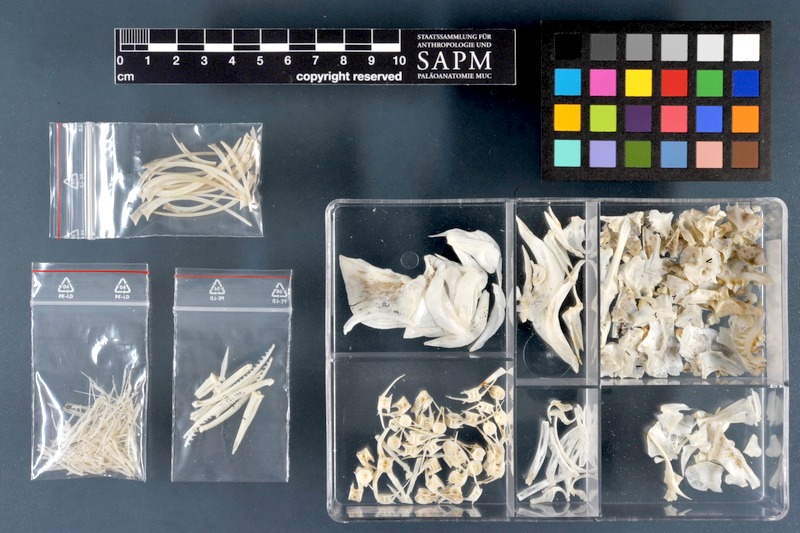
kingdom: Animalia
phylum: Chordata
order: Cypriniformes
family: Cyprinidae
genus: Cyprinus
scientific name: Cyprinus carpio
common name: Common carp
